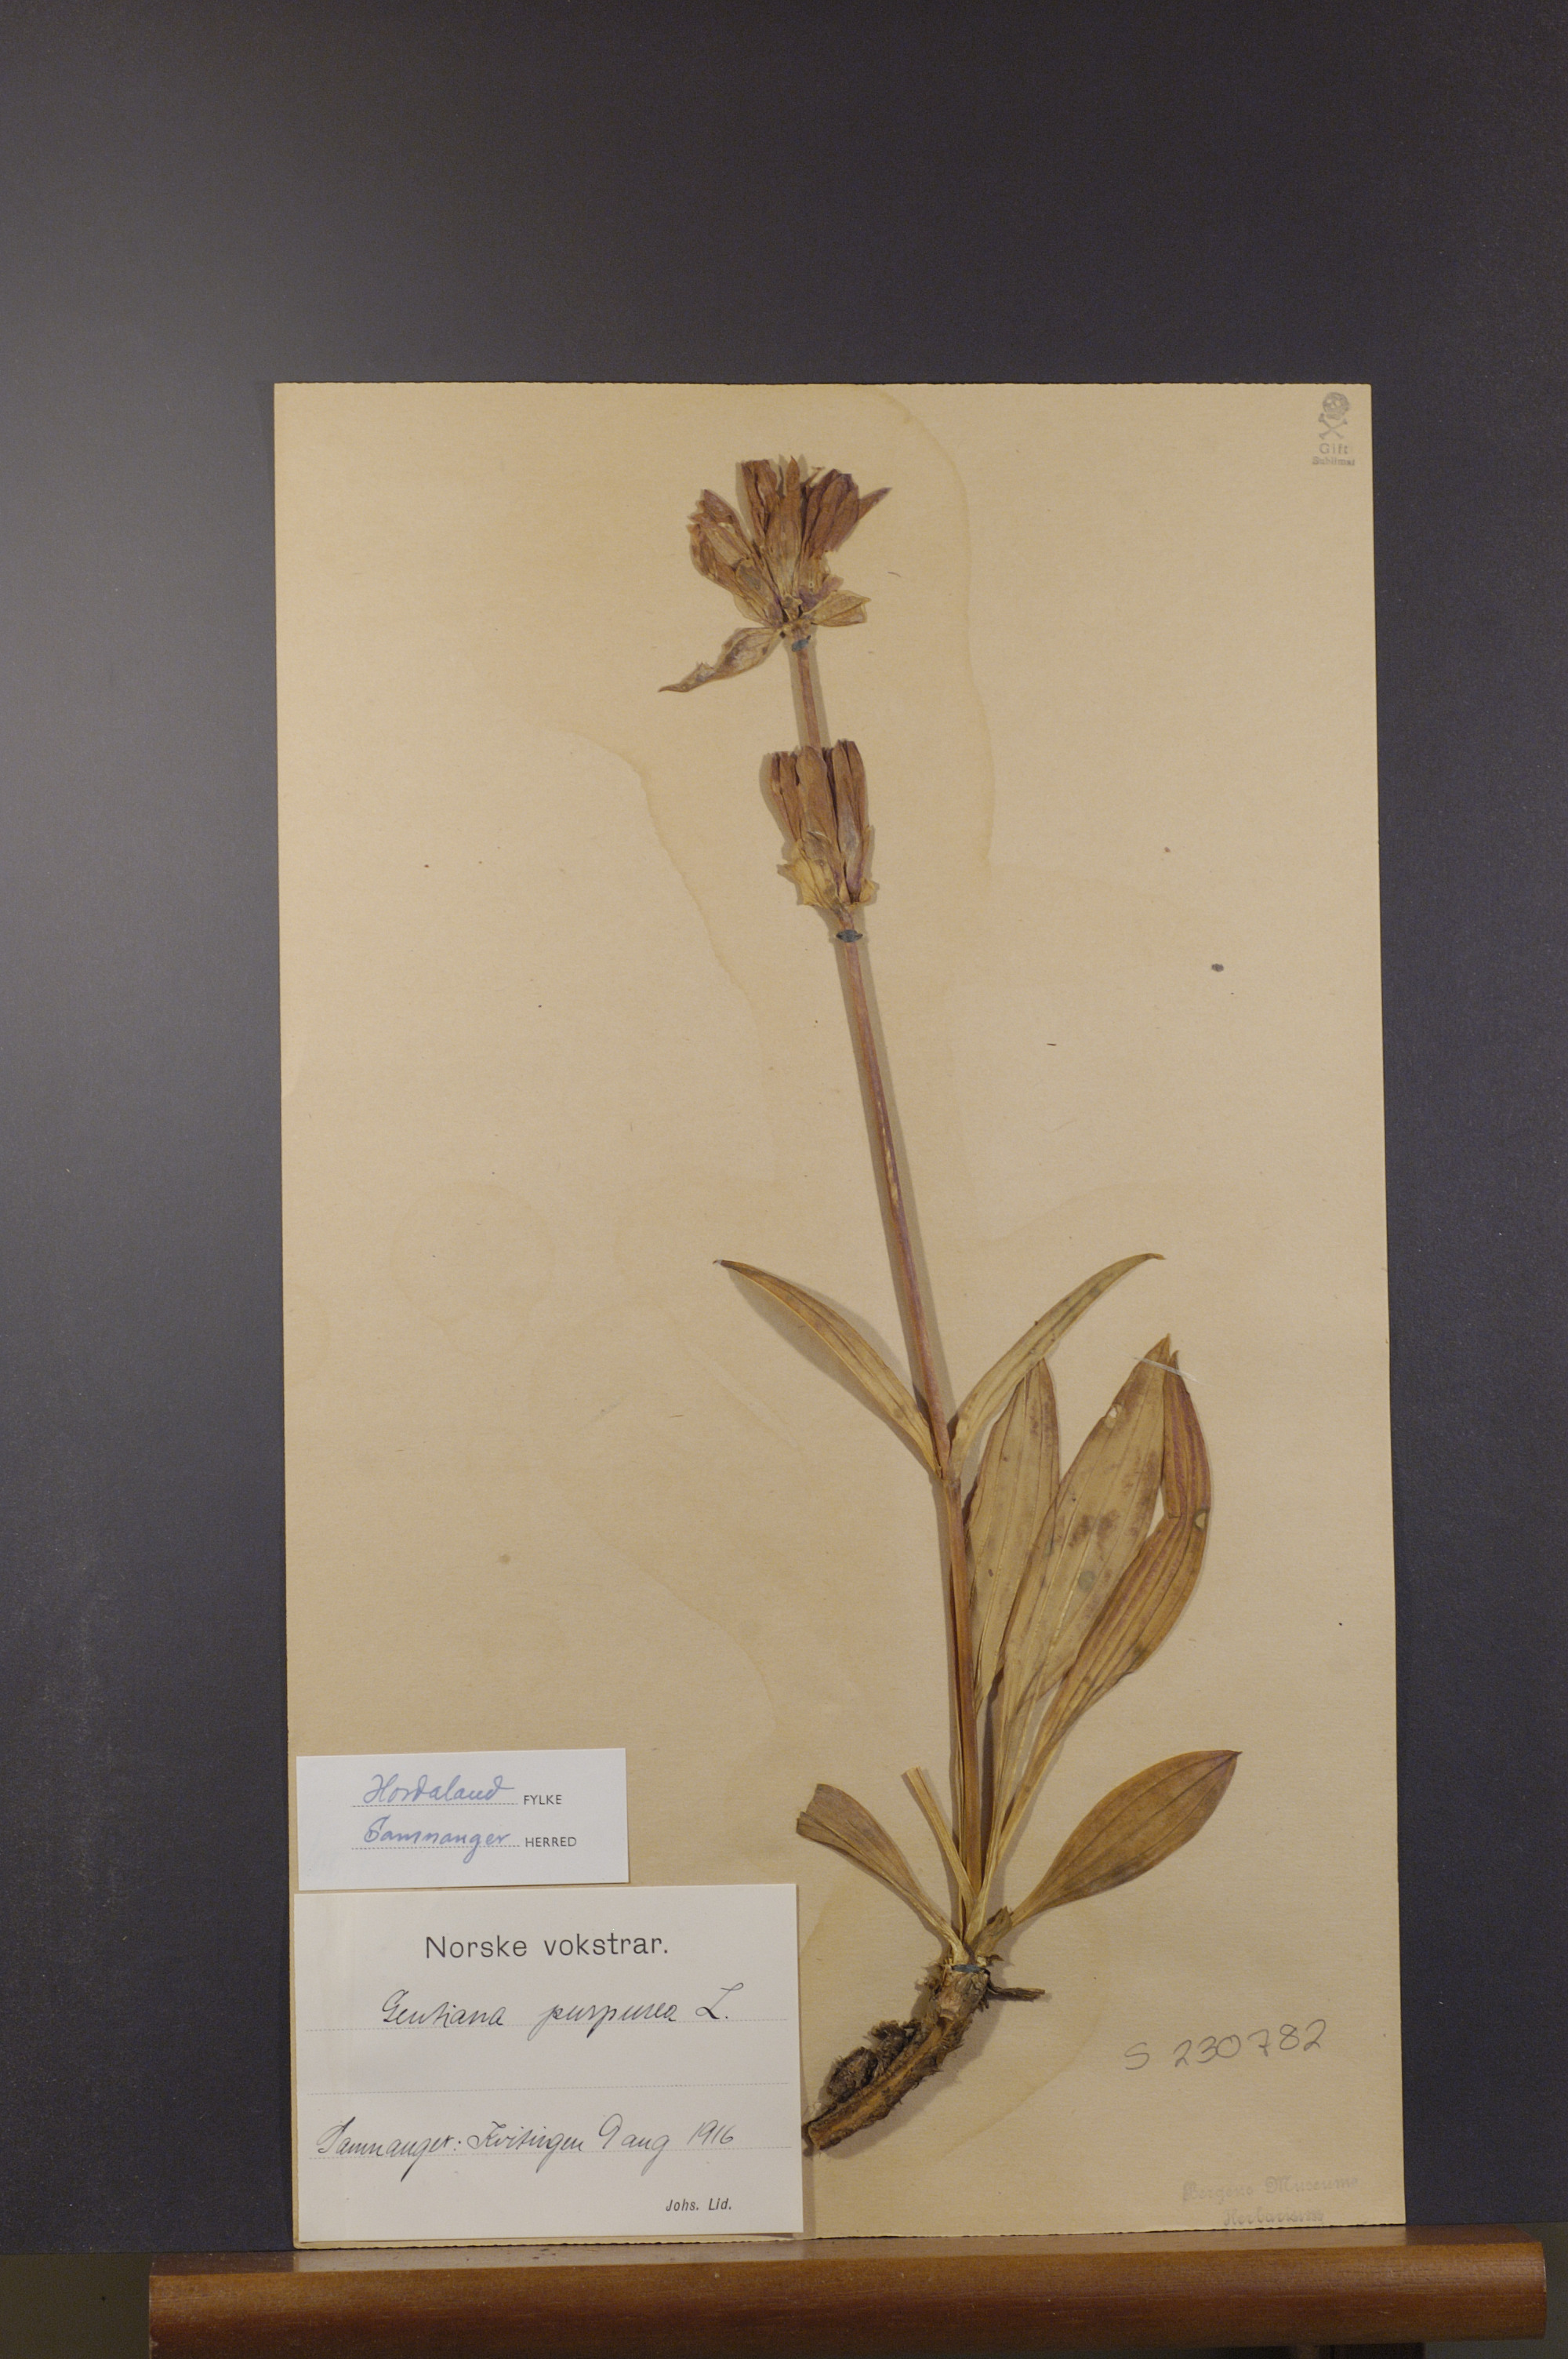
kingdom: Plantae
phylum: Tracheophyta
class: Magnoliopsida
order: Gentianales
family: Gentianaceae
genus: Gentiana
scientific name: Gentiana purpurea
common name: Purple gentian
